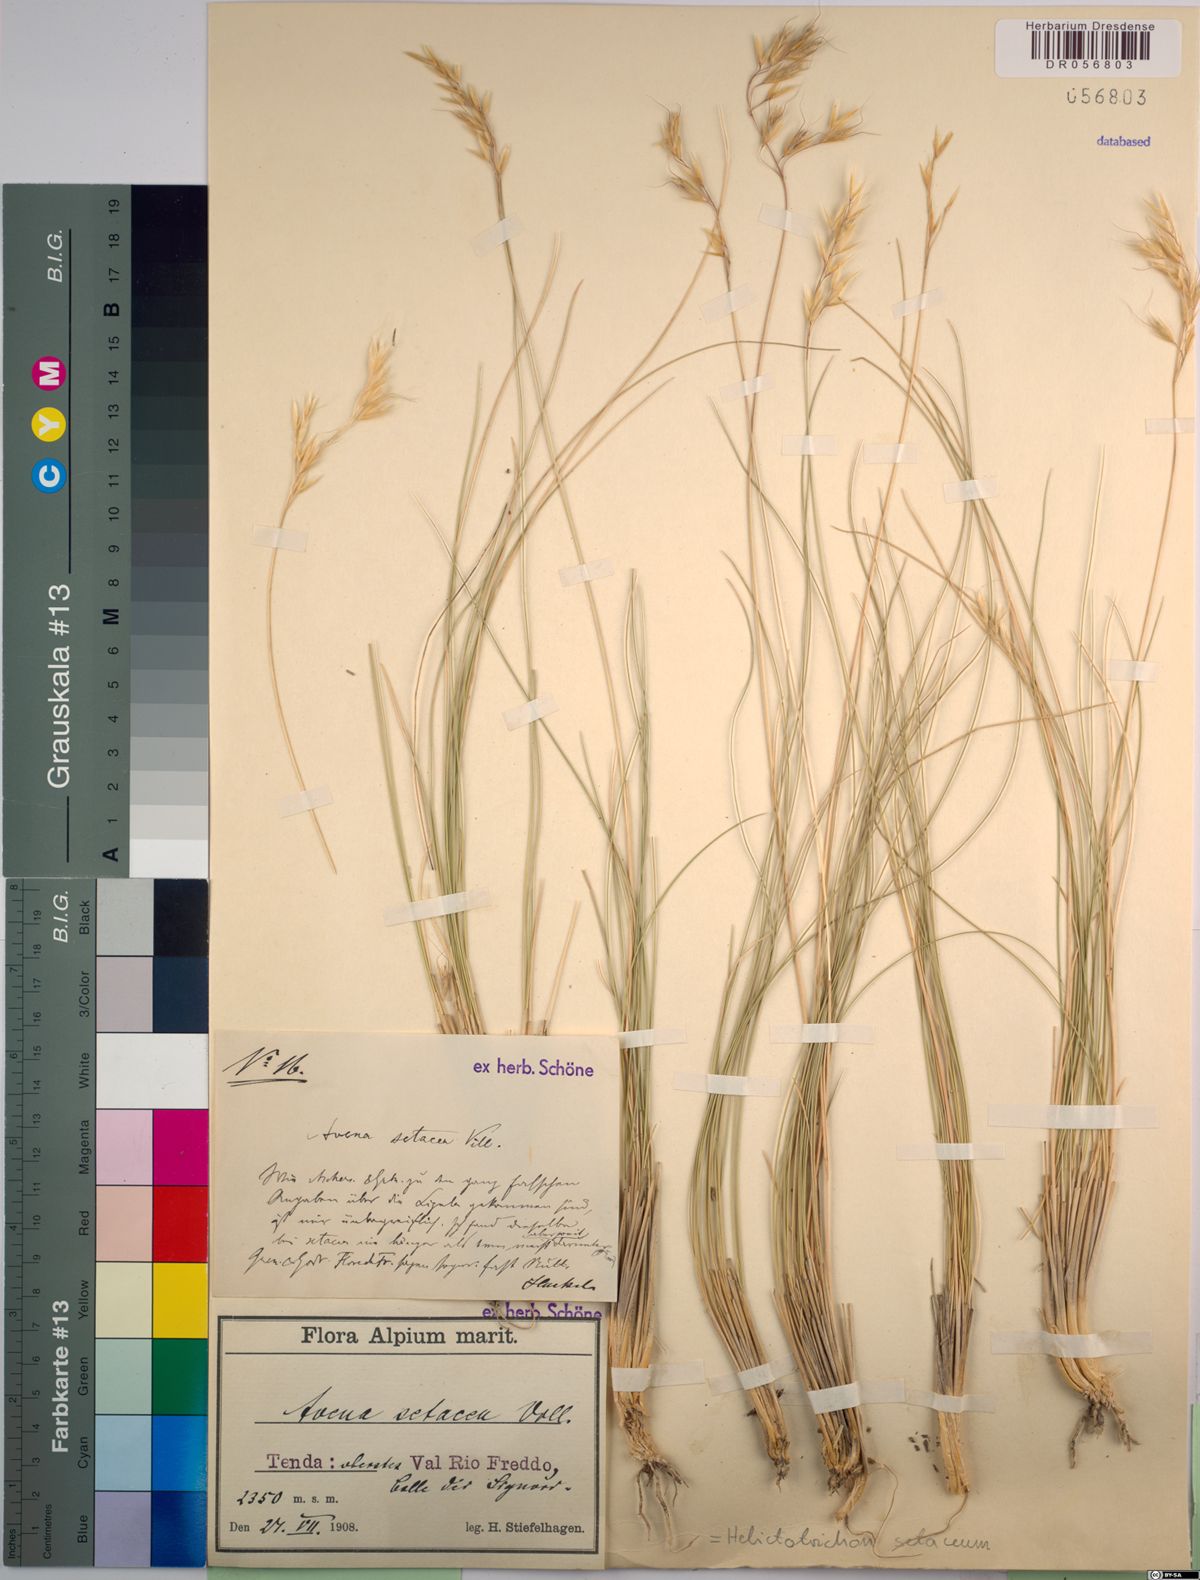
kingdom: Plantae
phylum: Tracheophyta
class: Liliopsida
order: Poales
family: Poaceae
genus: Helictotrichon
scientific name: Helictotrichon setaceum
